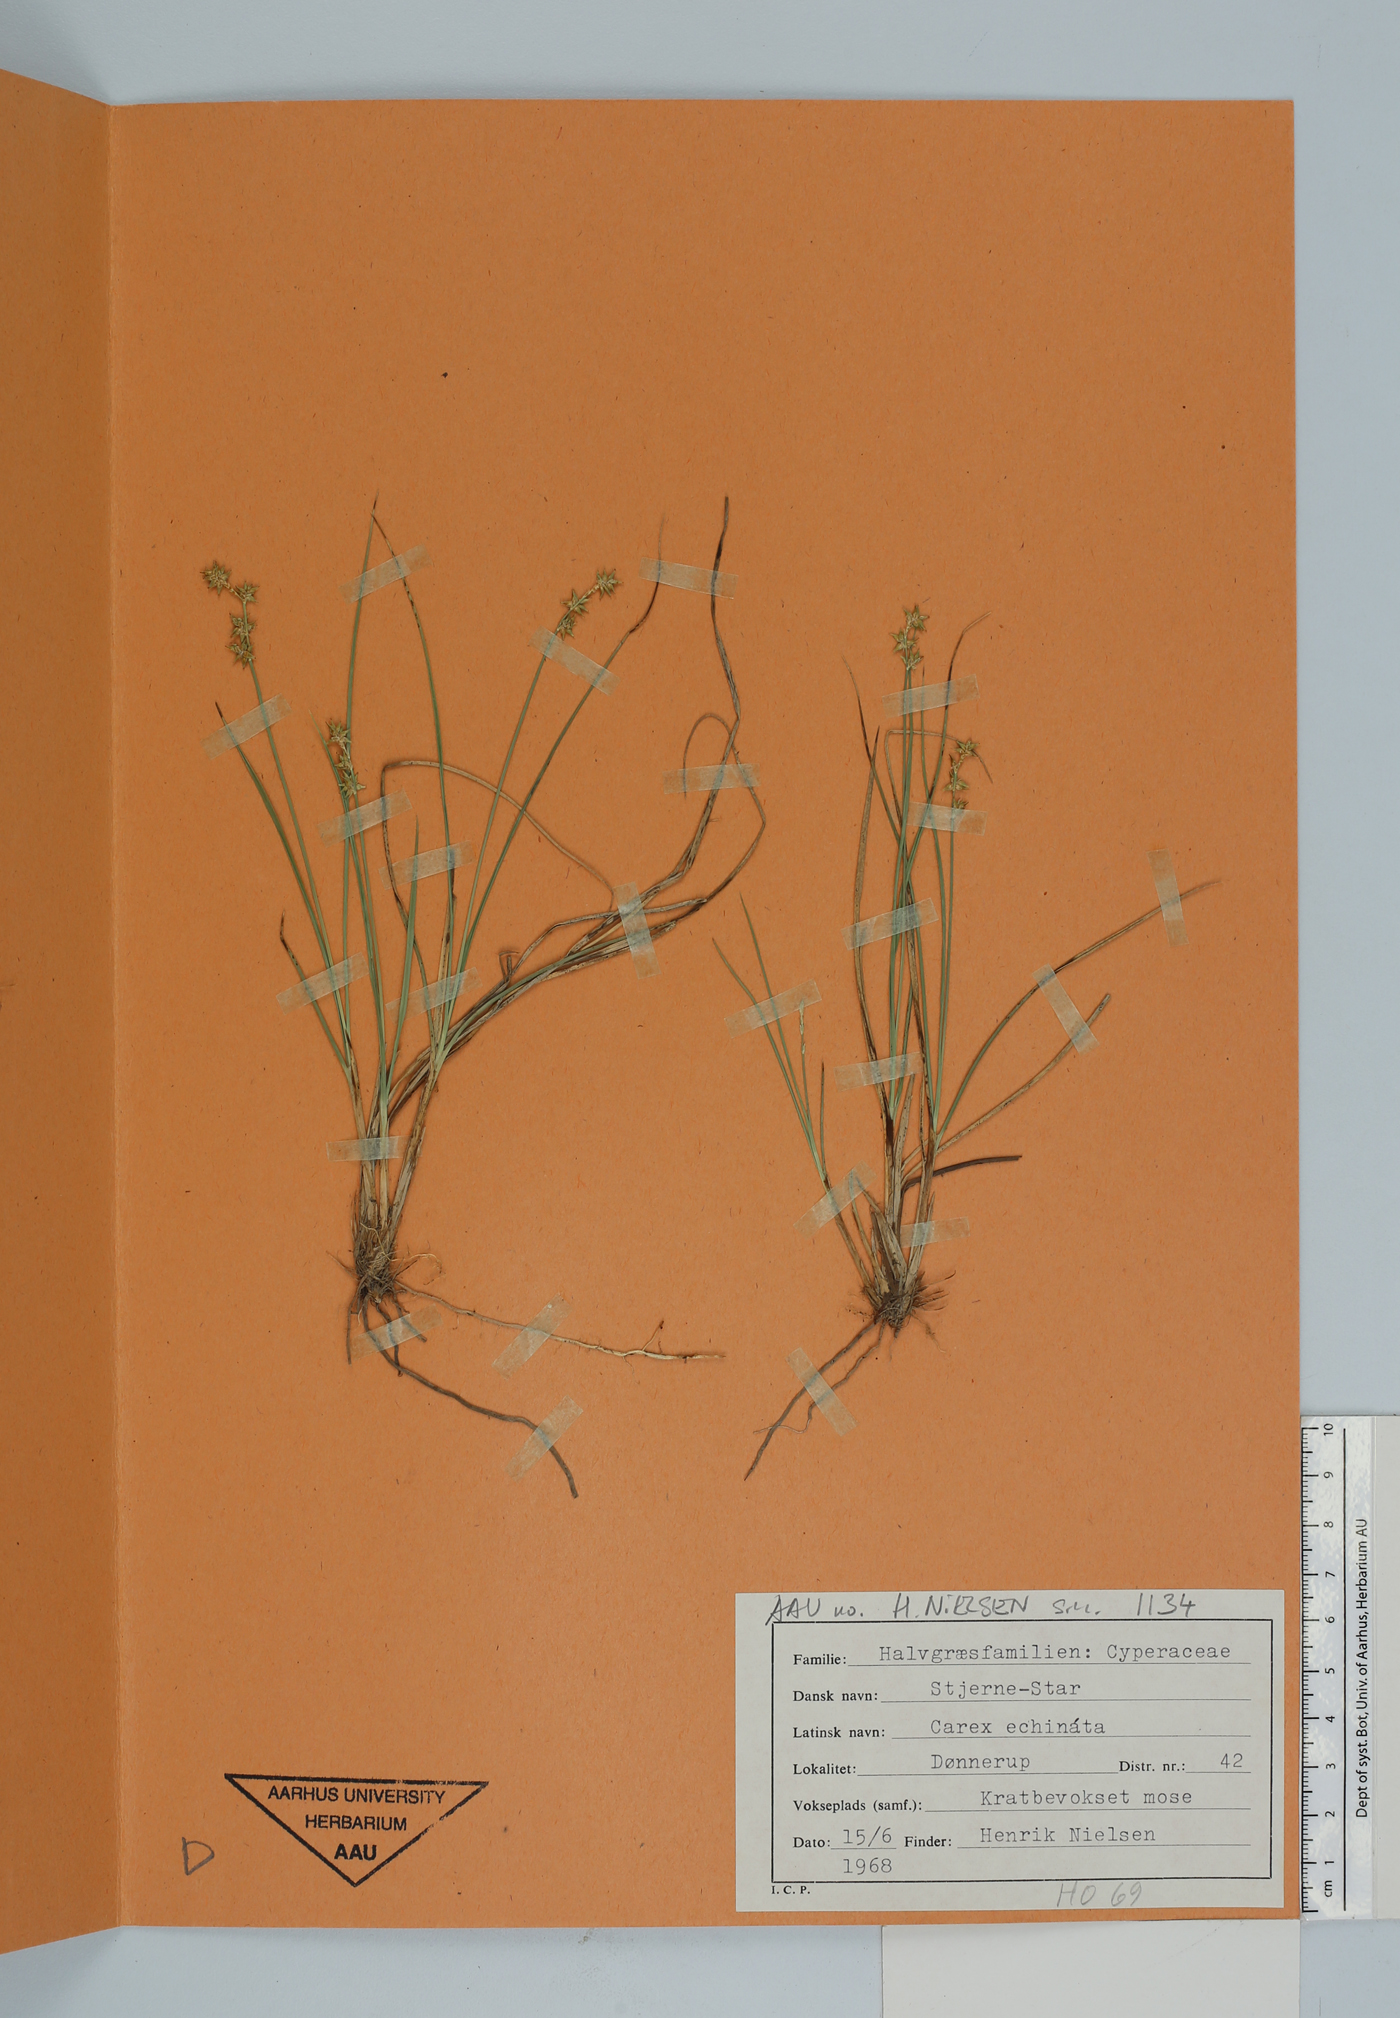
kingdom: Plantae
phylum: Tracheophyta
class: Liliopsida
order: Poales
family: Cyperaceae
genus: Carex
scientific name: Carex echinata
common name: Star sedge
